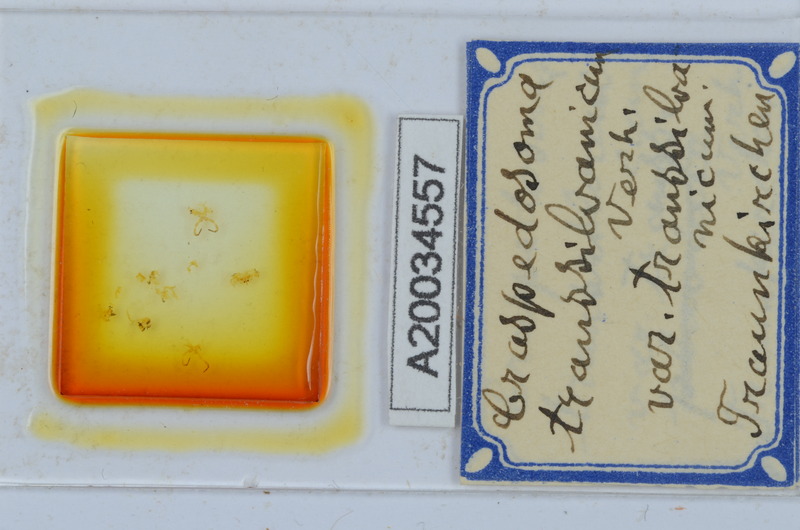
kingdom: Animalia
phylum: Arthropoda
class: Diplopoda
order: Chordeumatida
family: Craspedosomatidae
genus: Craspedosoma
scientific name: Craspedosoma rawlinsii
